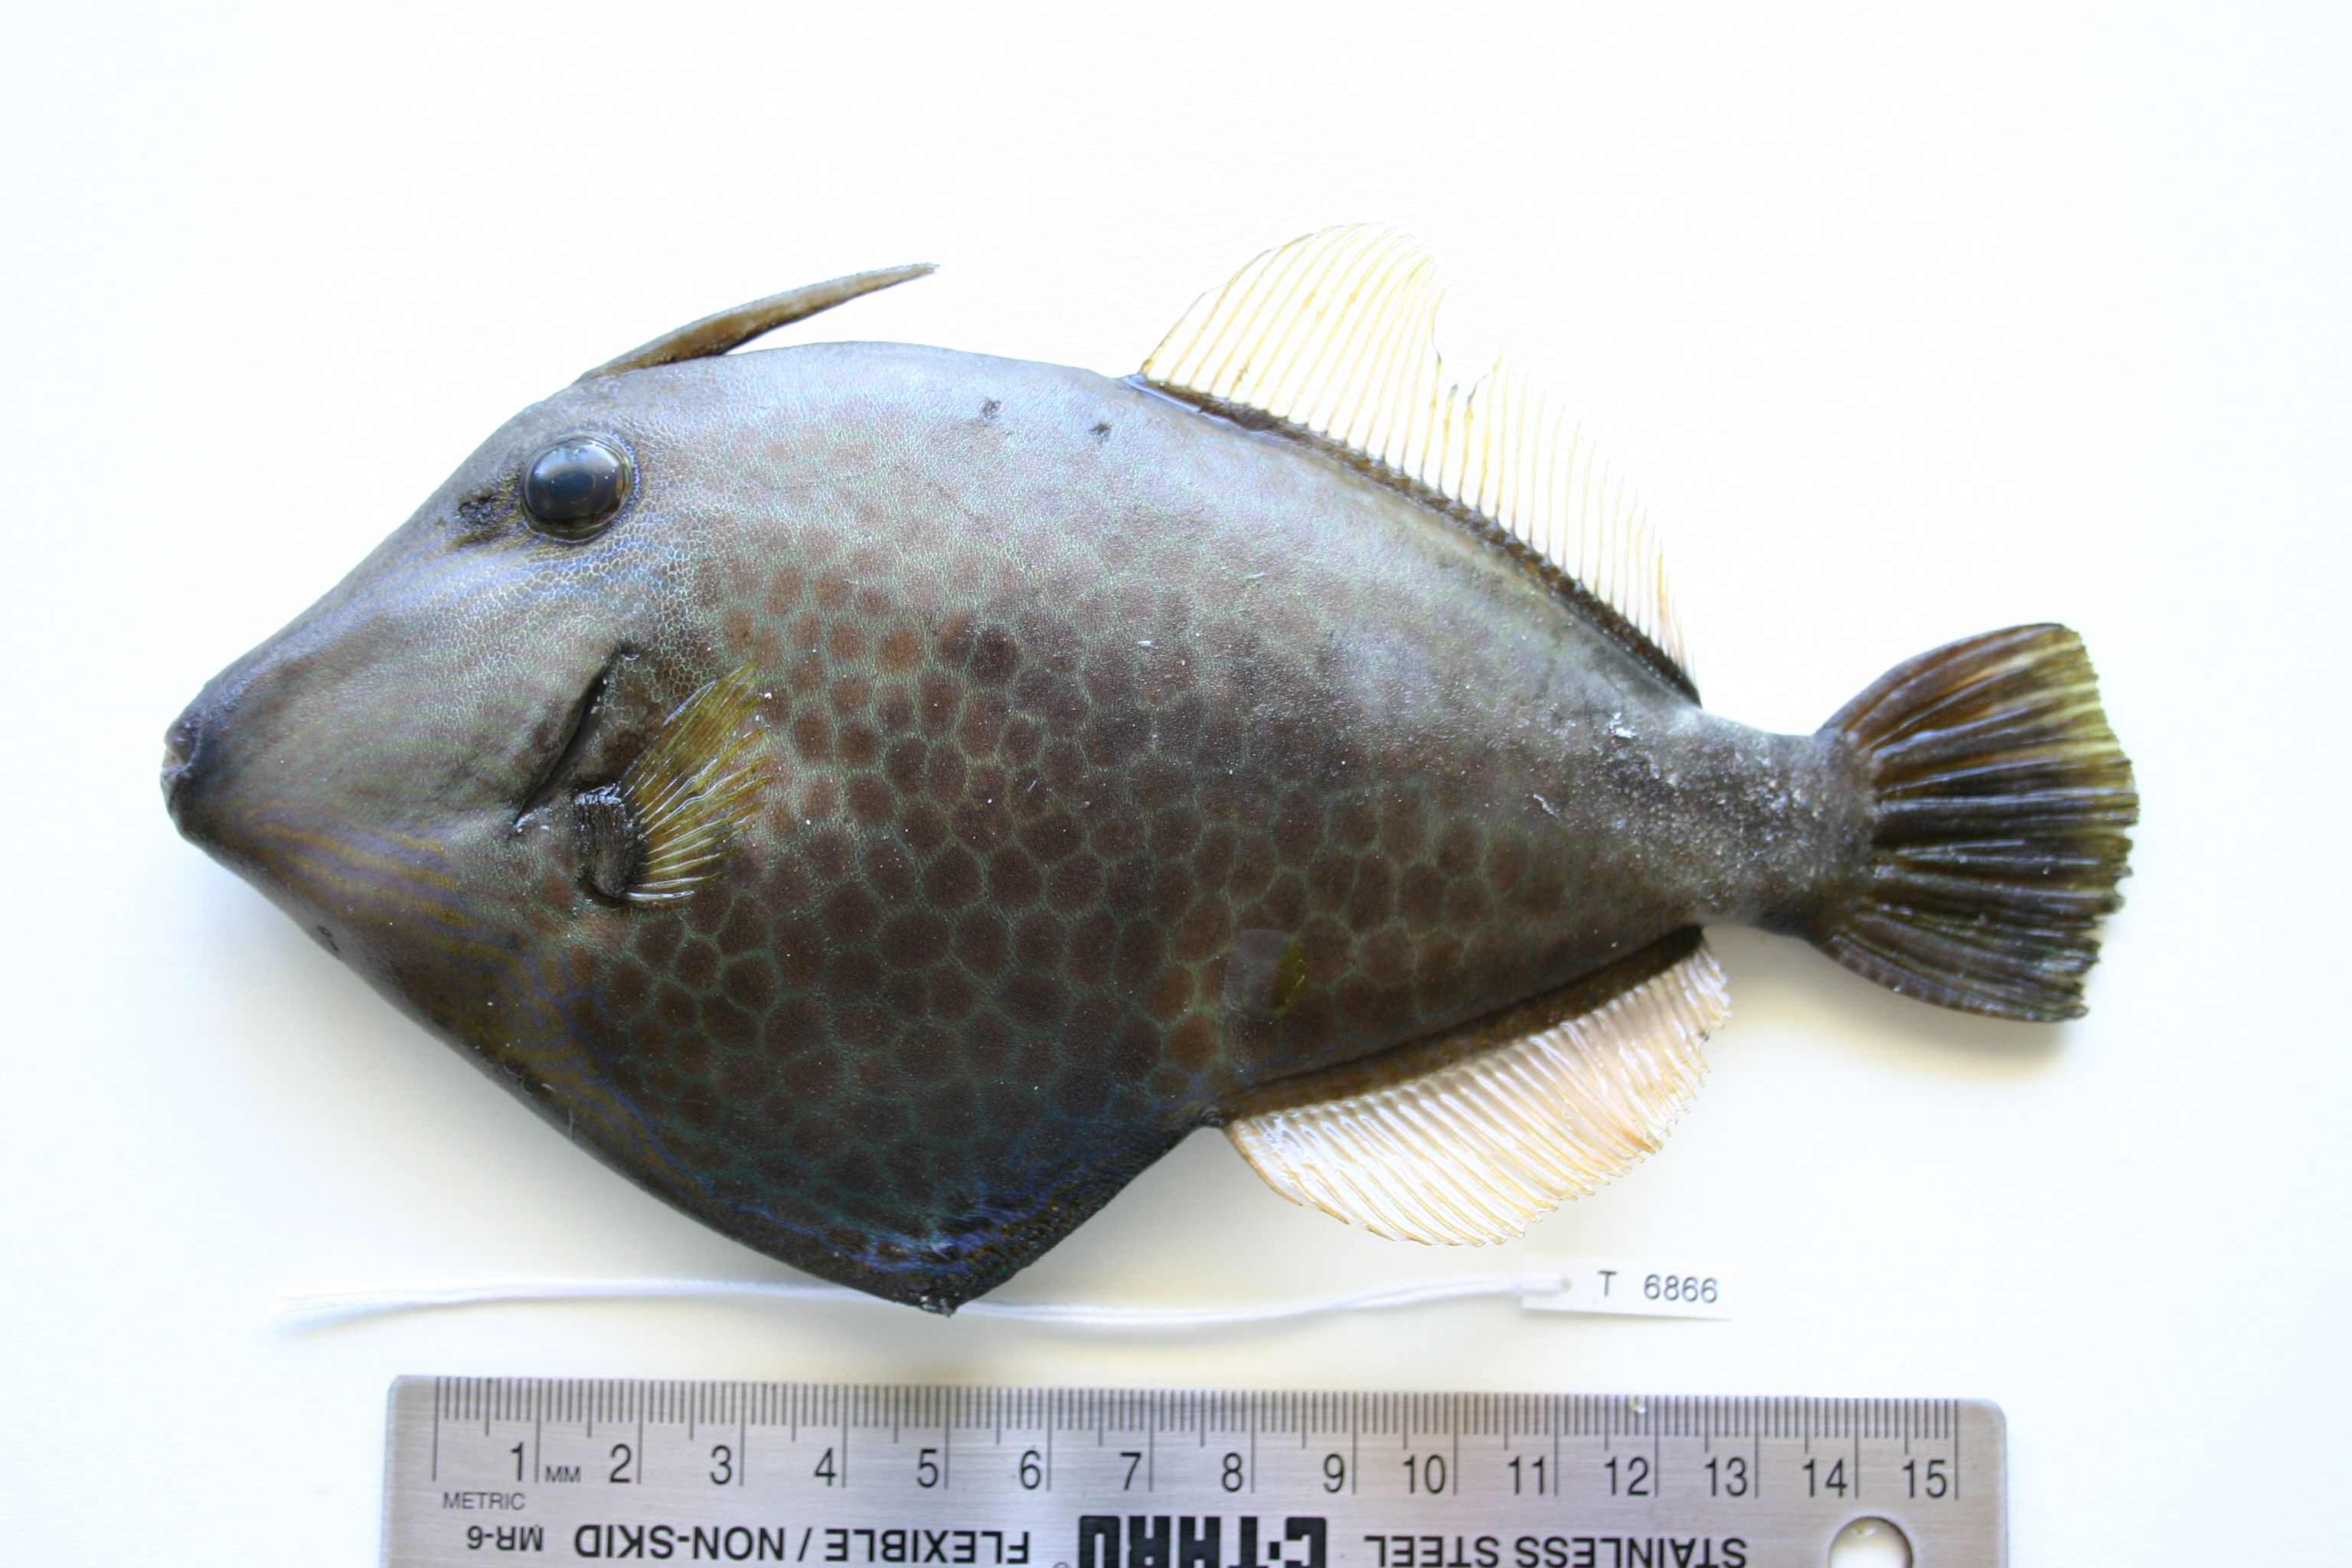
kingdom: Animalia
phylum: Chordata
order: Tetraodontiformes
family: Monacanthidae
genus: Cantherhines
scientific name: Cantherhines pardalis
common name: Honeycomb filefish
